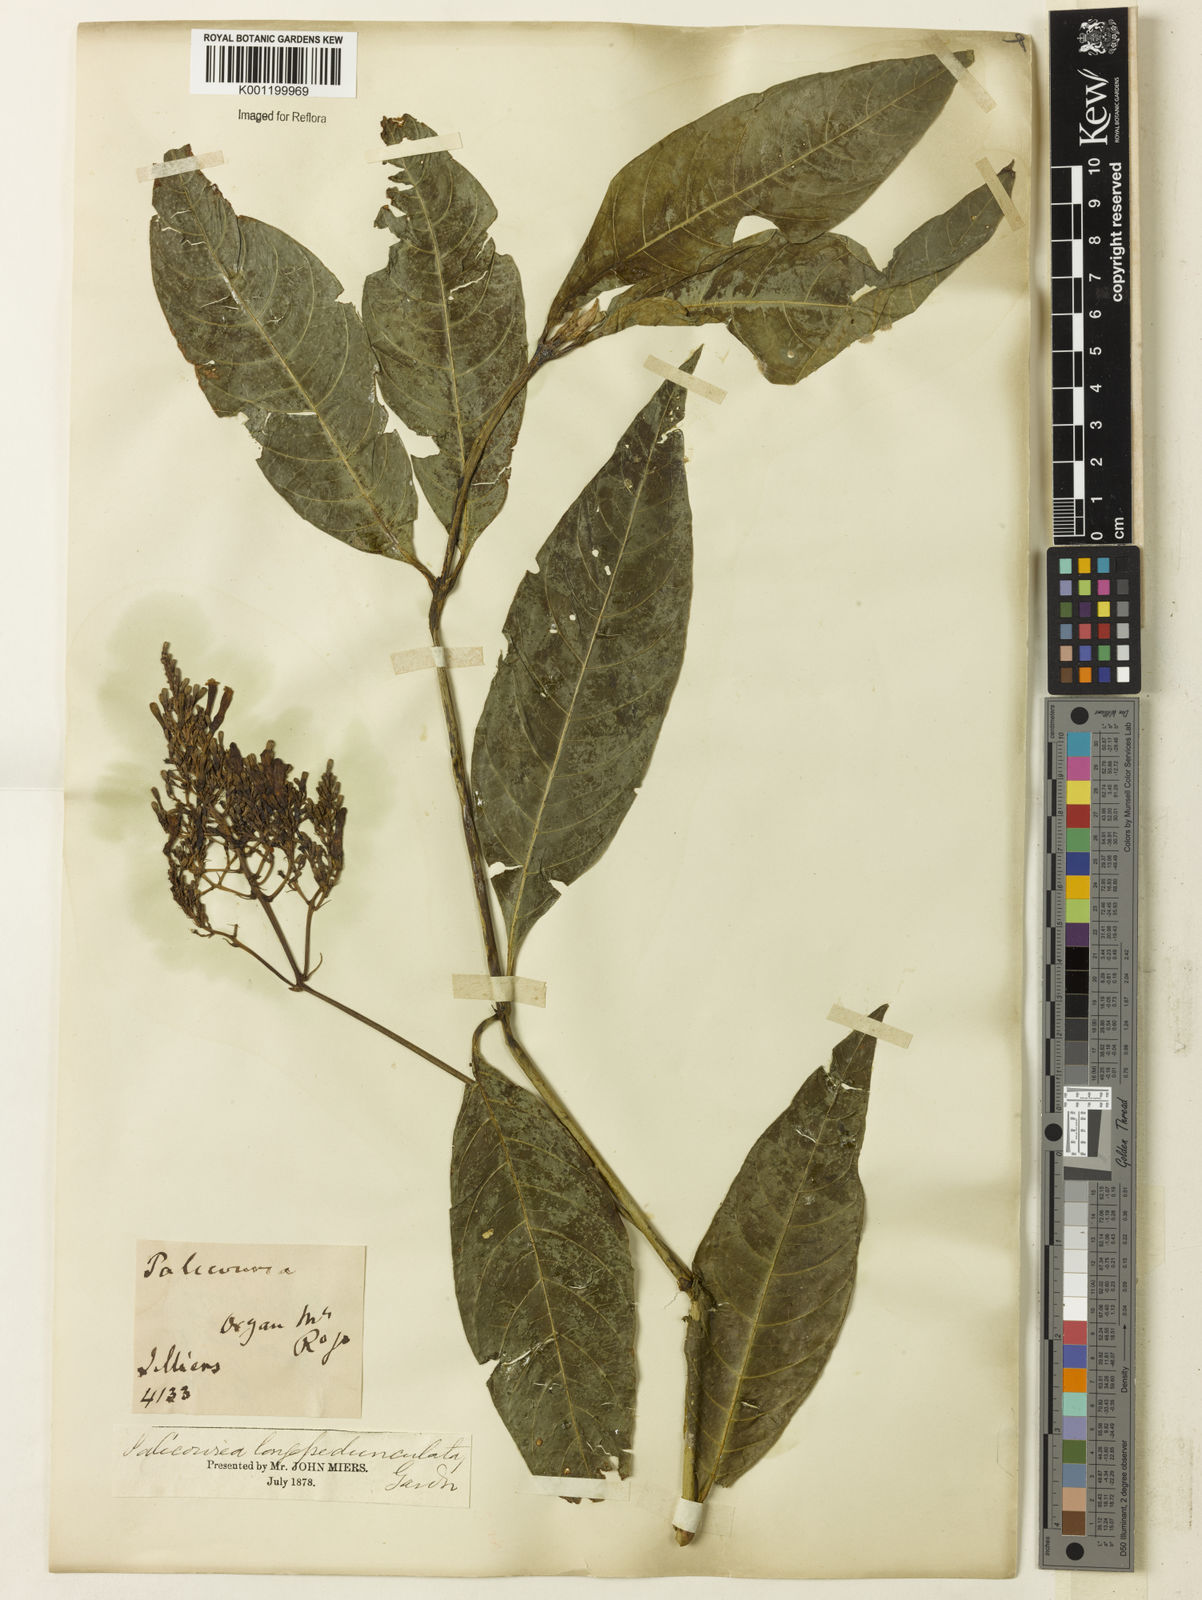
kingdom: Plantae
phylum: Tracheophyta
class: Magnoliopsida
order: Gentianales
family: Rubiaceae
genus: Palicourea
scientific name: Palicourea longipedunculata
